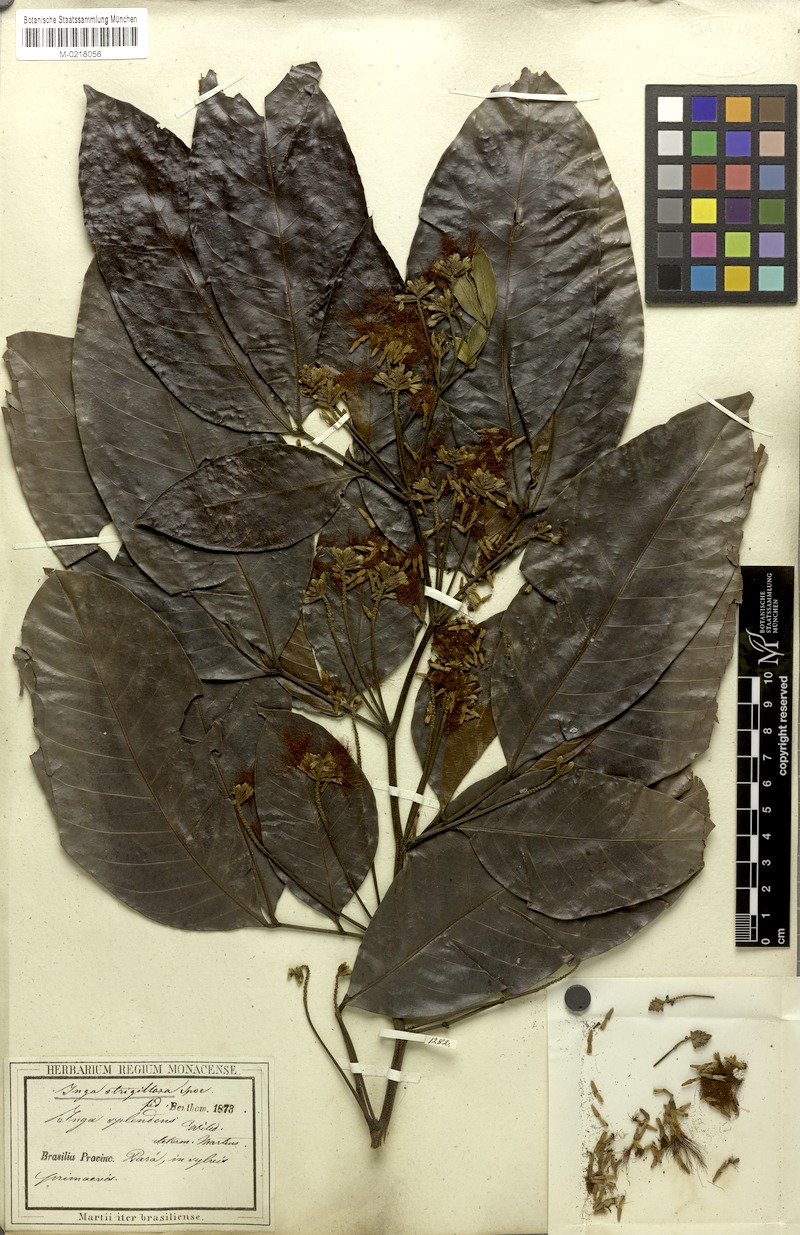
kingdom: Plantae
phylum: Tracheophyta
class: Magnoliopsida
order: Fabales
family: Fabaceae
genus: Inga
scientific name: Inga punctata
